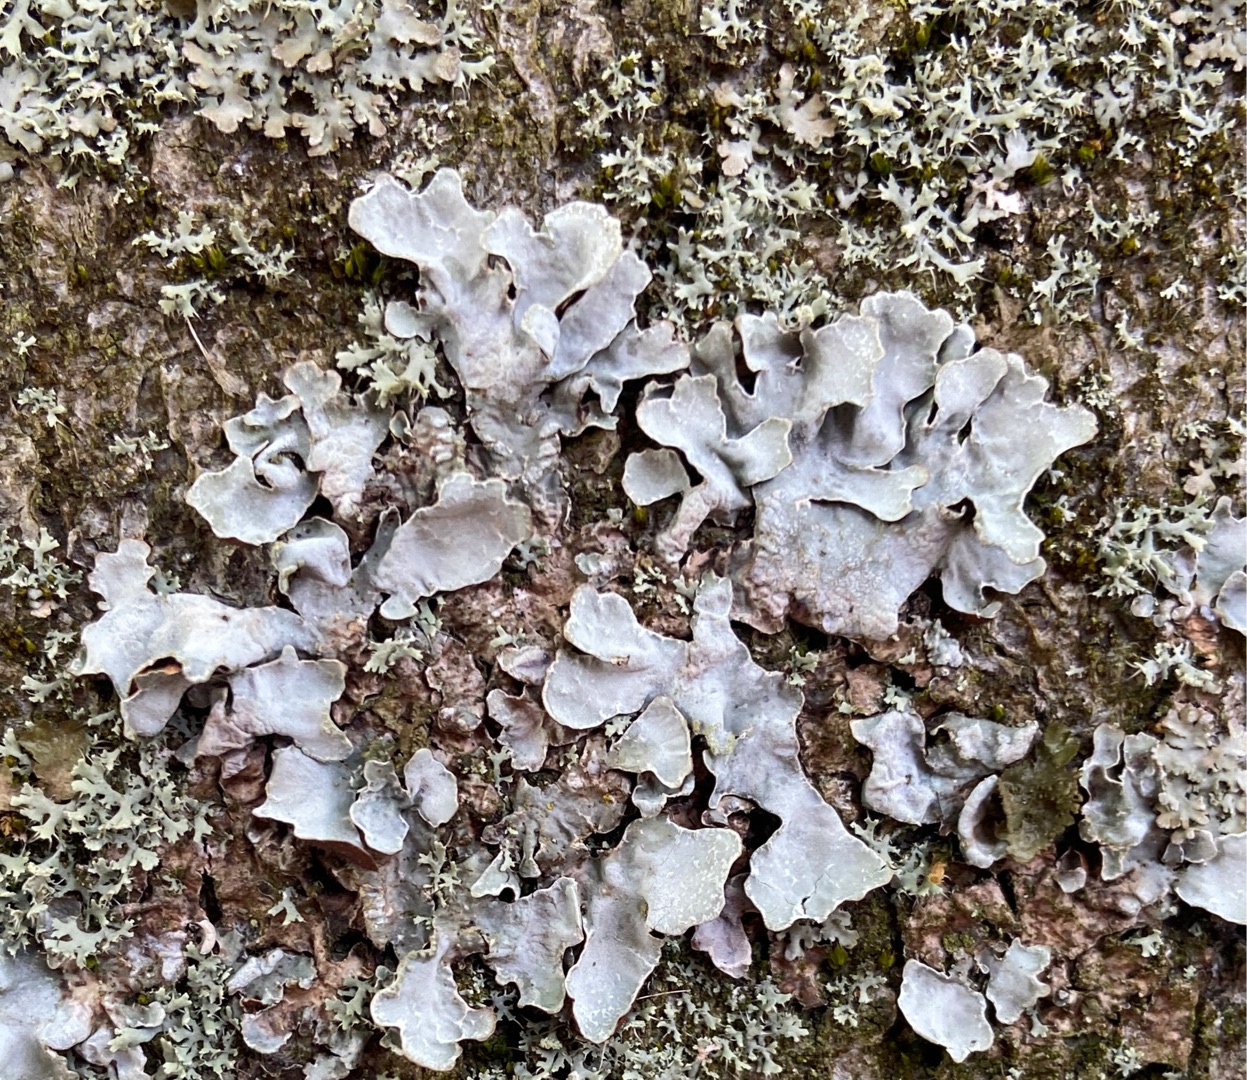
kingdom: Fungi
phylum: Ascomycota
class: Lecanoromycetes
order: Lecanorales
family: Parmeliaceae
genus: Parmelia
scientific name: Parmelia sulcata
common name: Rynket skållav
